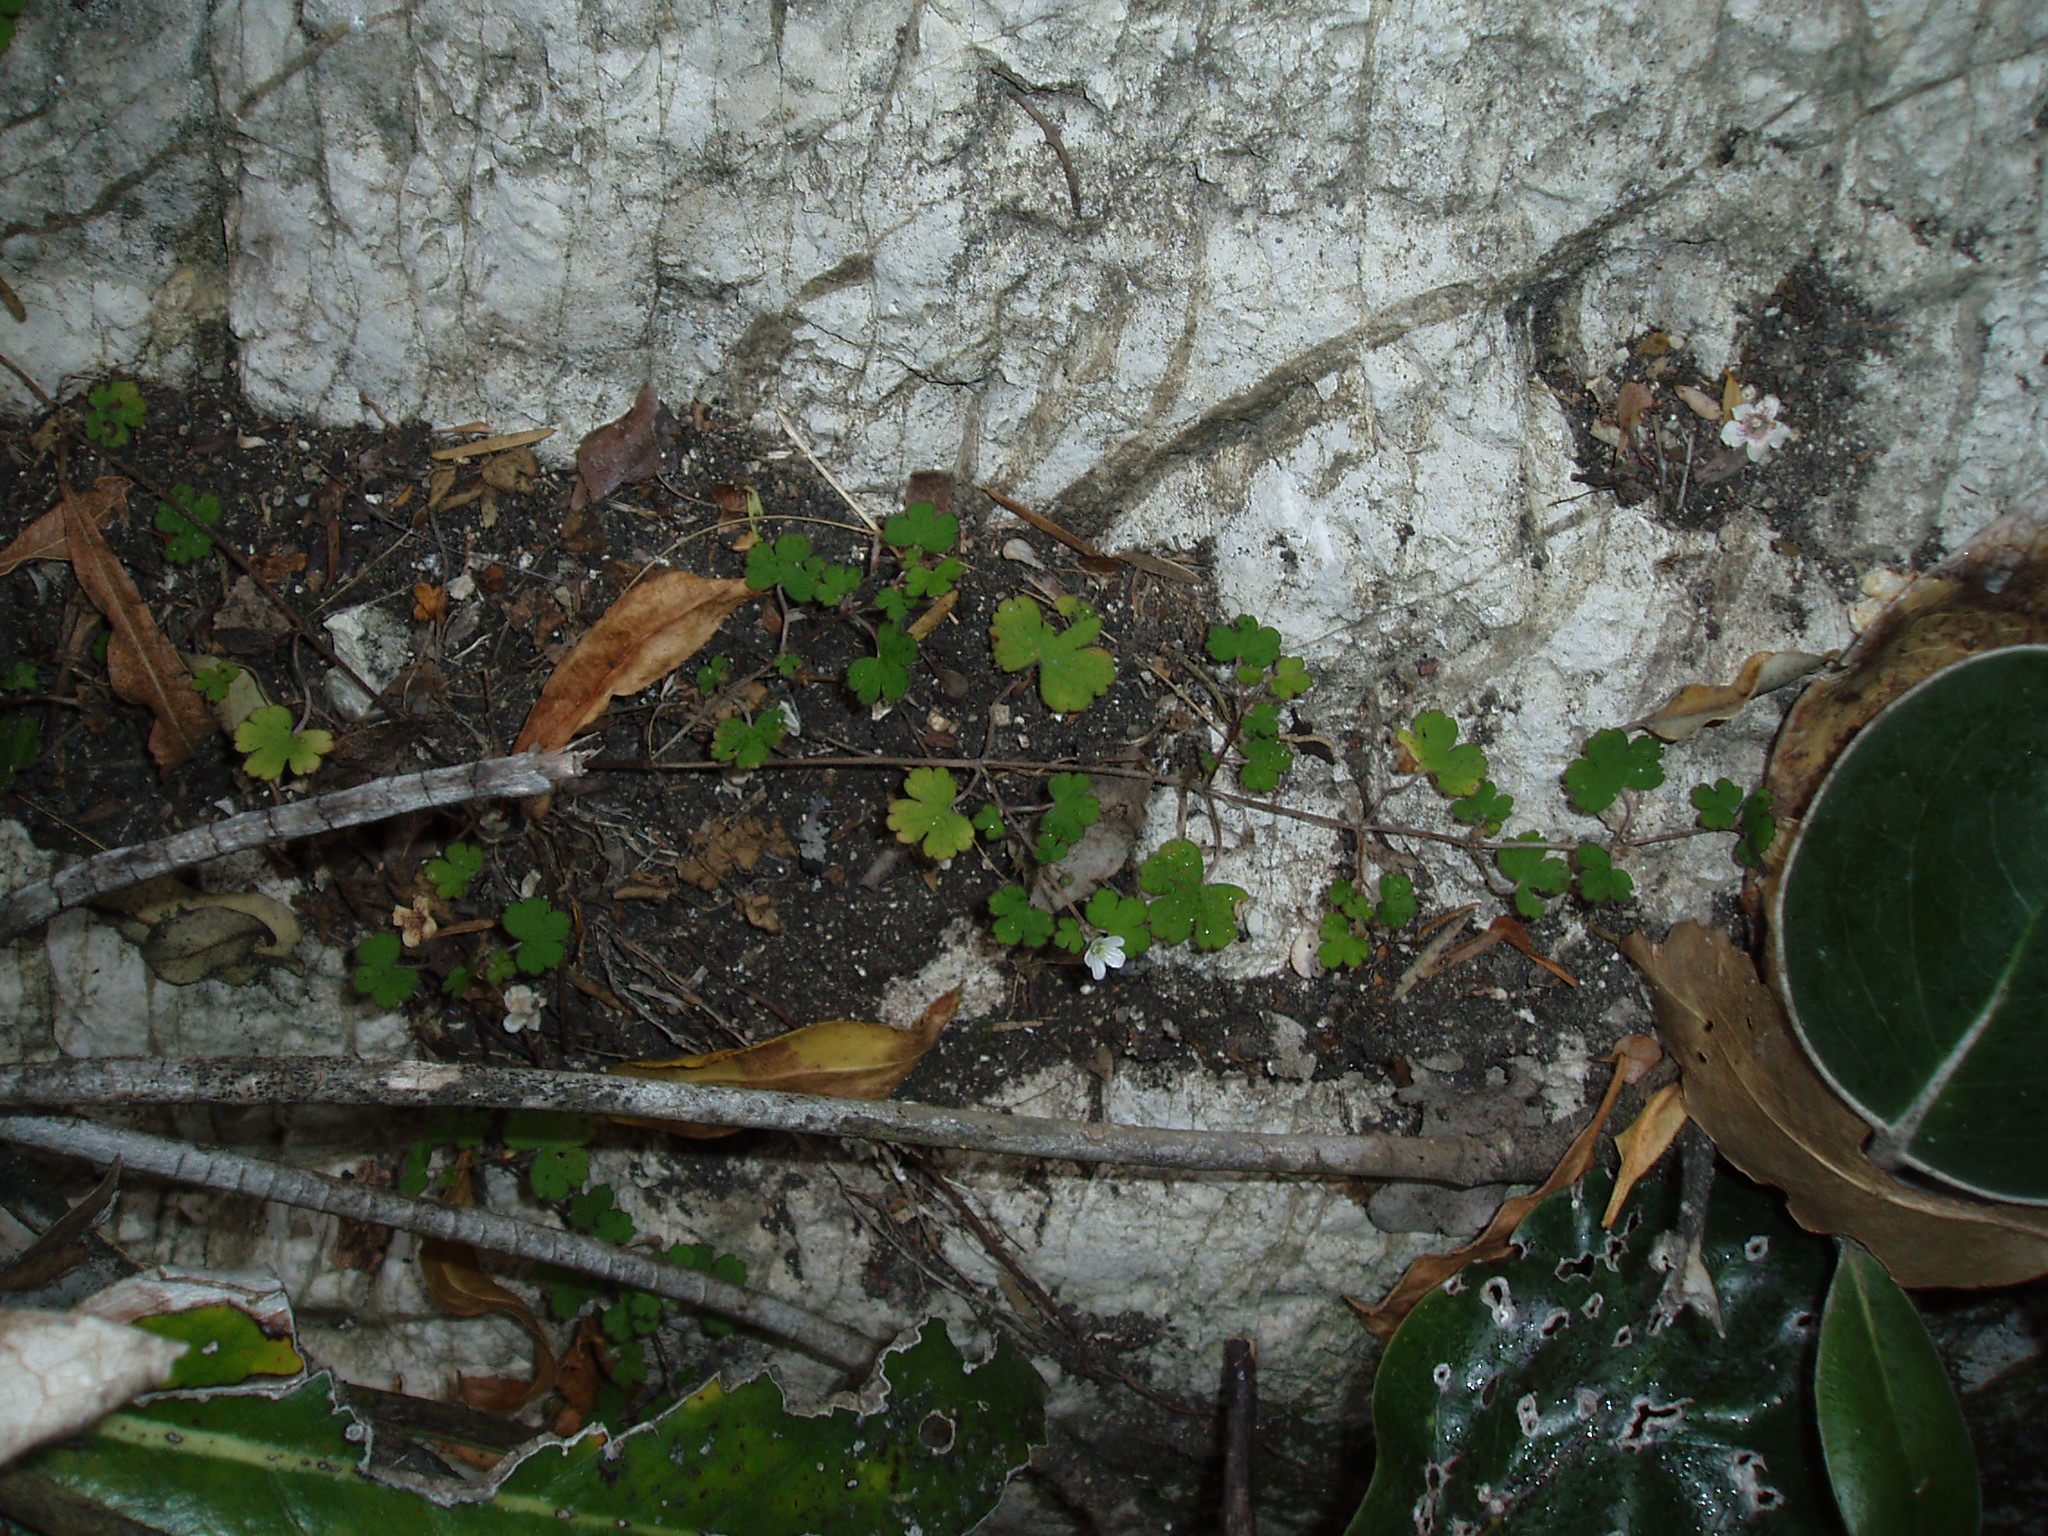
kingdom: Plantae
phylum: Tracheophyta
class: Magnoliopsida
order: Geraniales
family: Geraniaceae
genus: Geranium
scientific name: Geranium potentilloides
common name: Cinquefoil geranium
